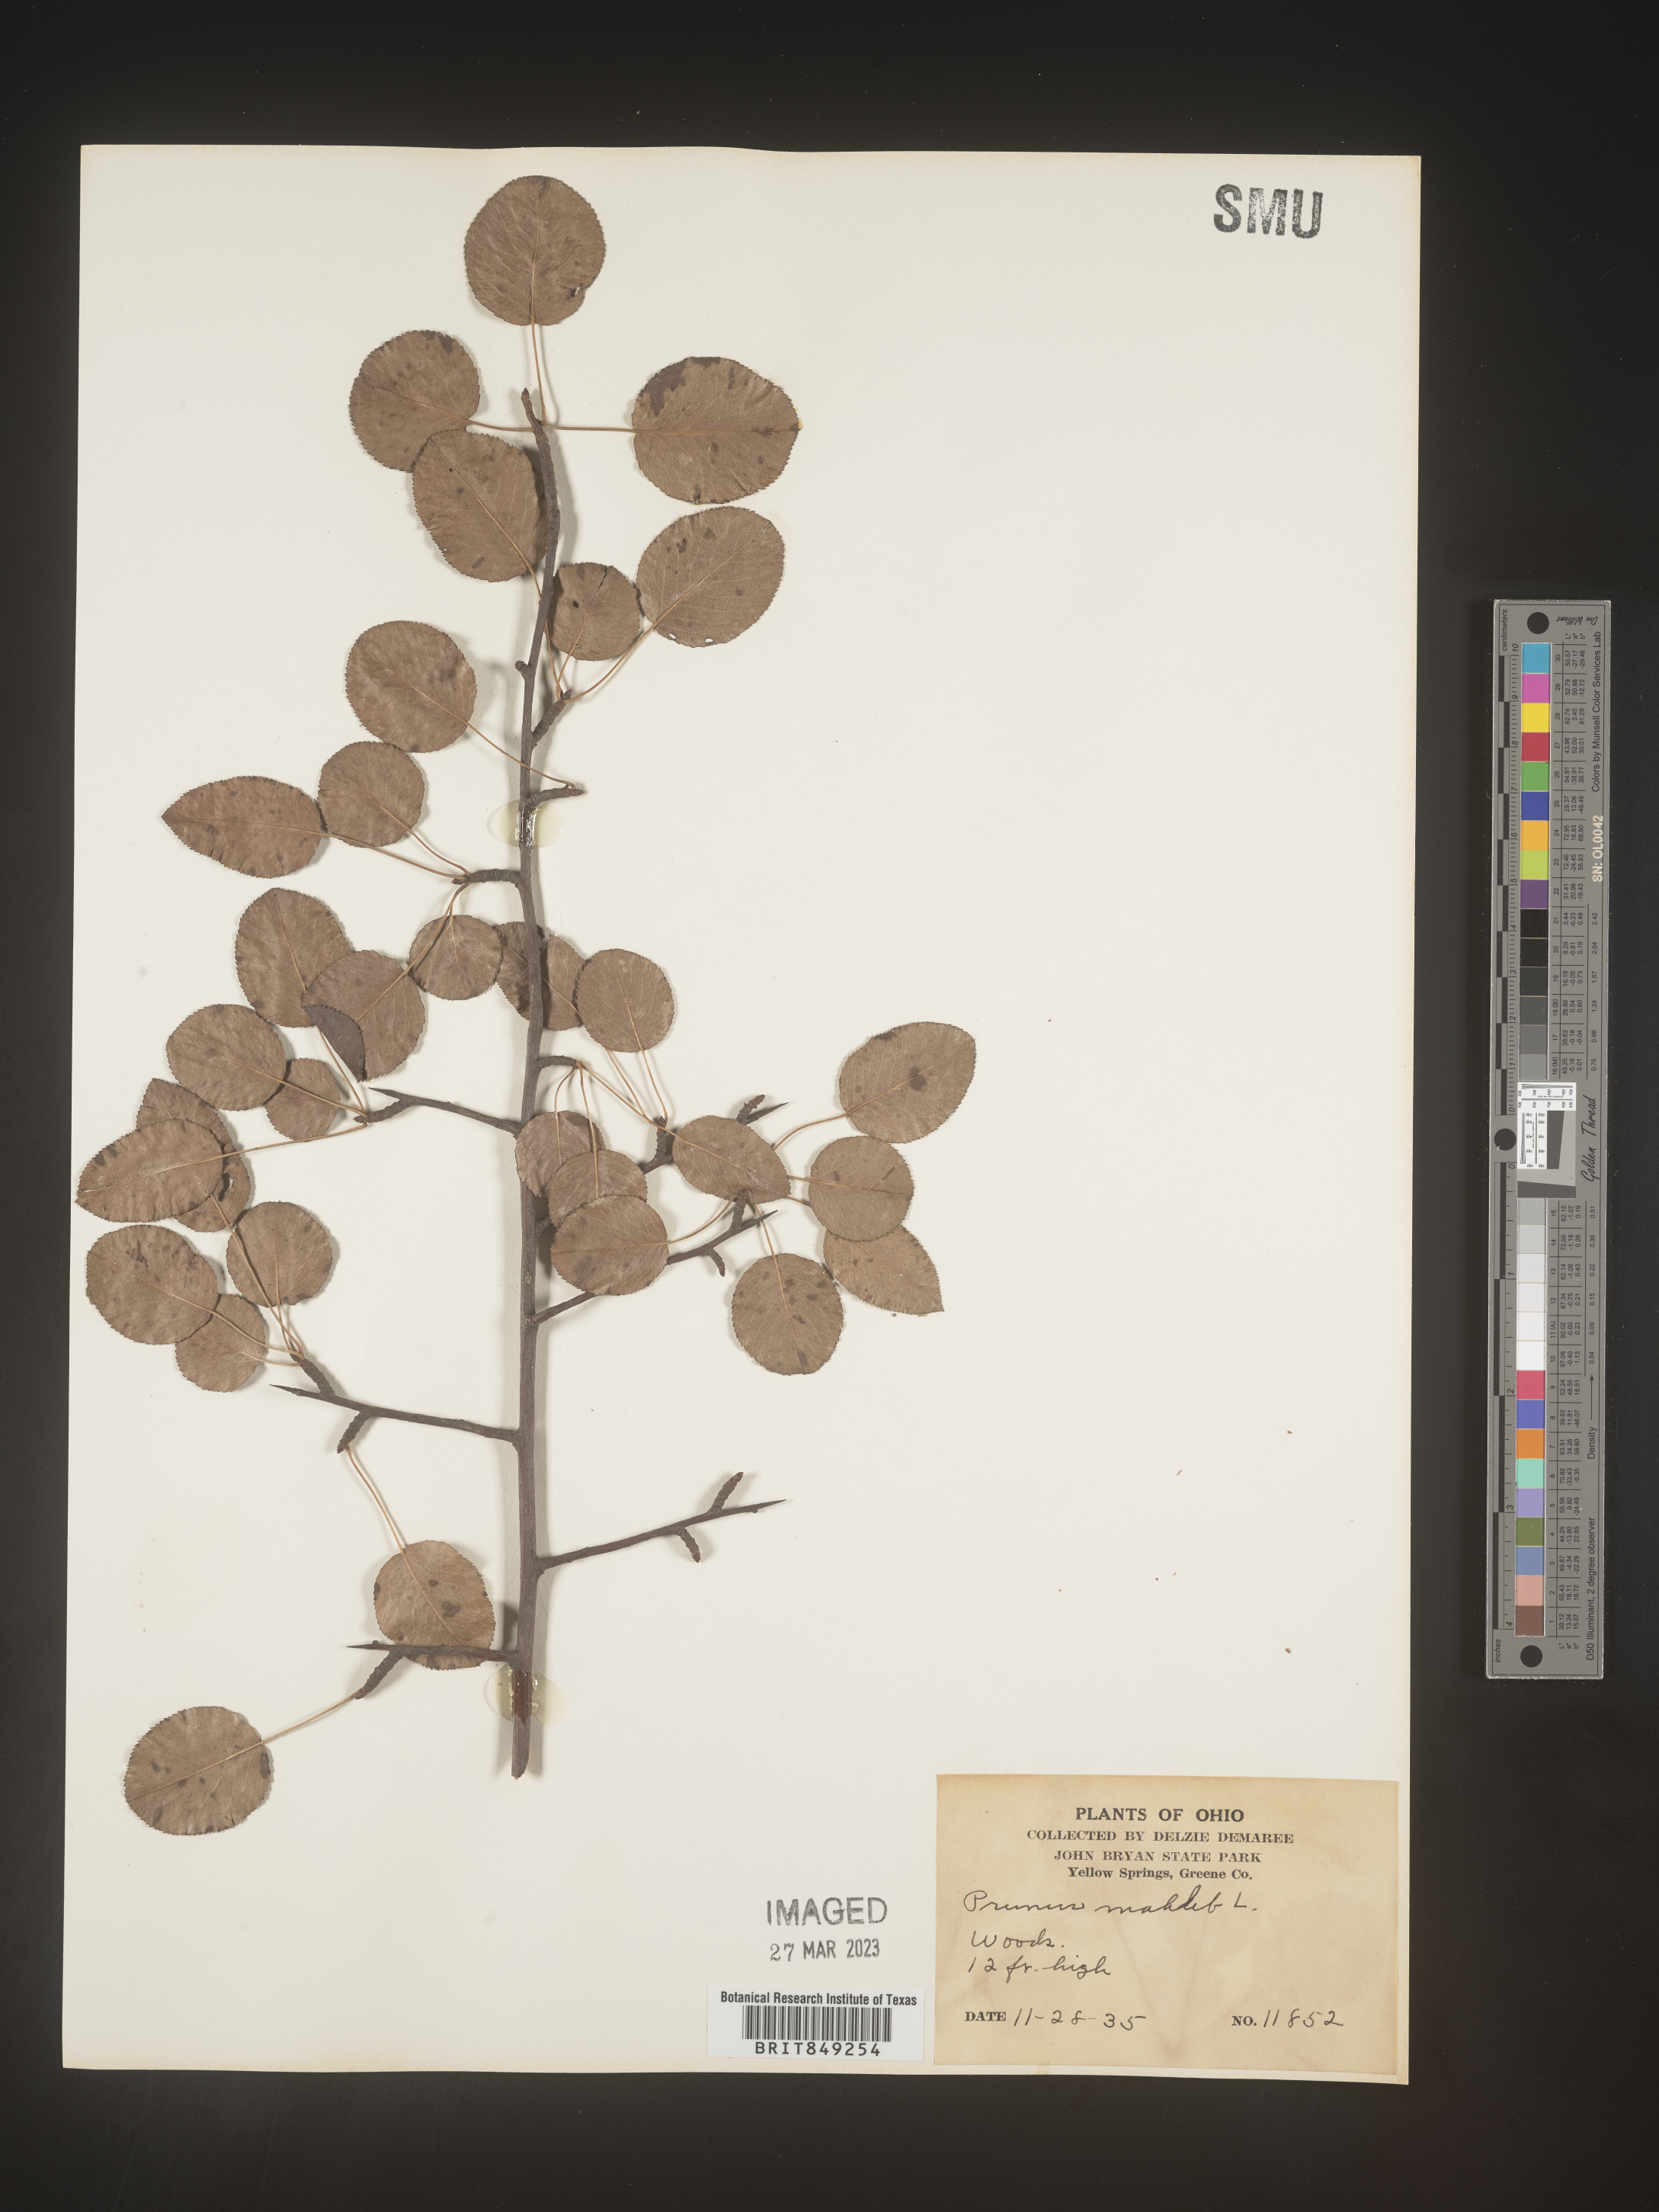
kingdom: Plantae
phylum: Tracheophyta
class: Magnoliopsida
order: Rosales
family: Rosaceae
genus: Prunus
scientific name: Prunus
